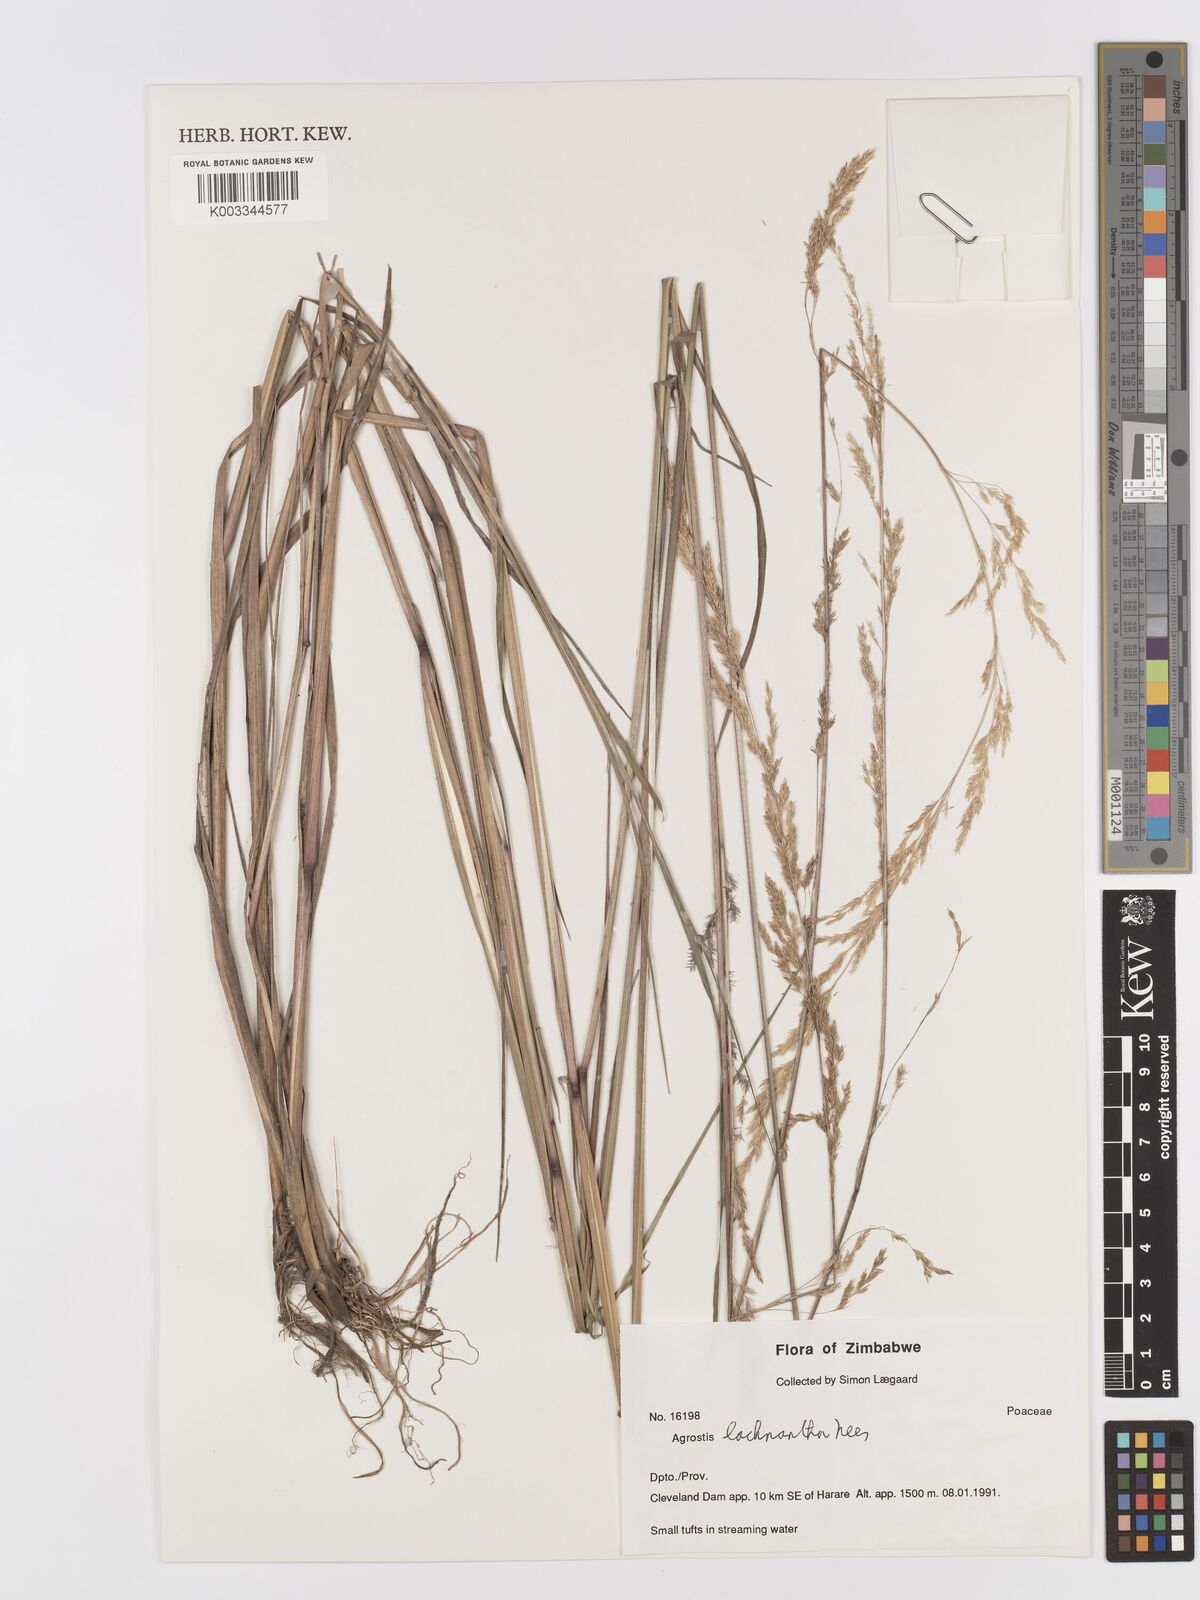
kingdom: Plantae
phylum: Tracheophyta
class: Liliopsida
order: Poales
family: Poaceae
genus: Lachnagrostis
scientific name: Lachnagrostis lachnantha
